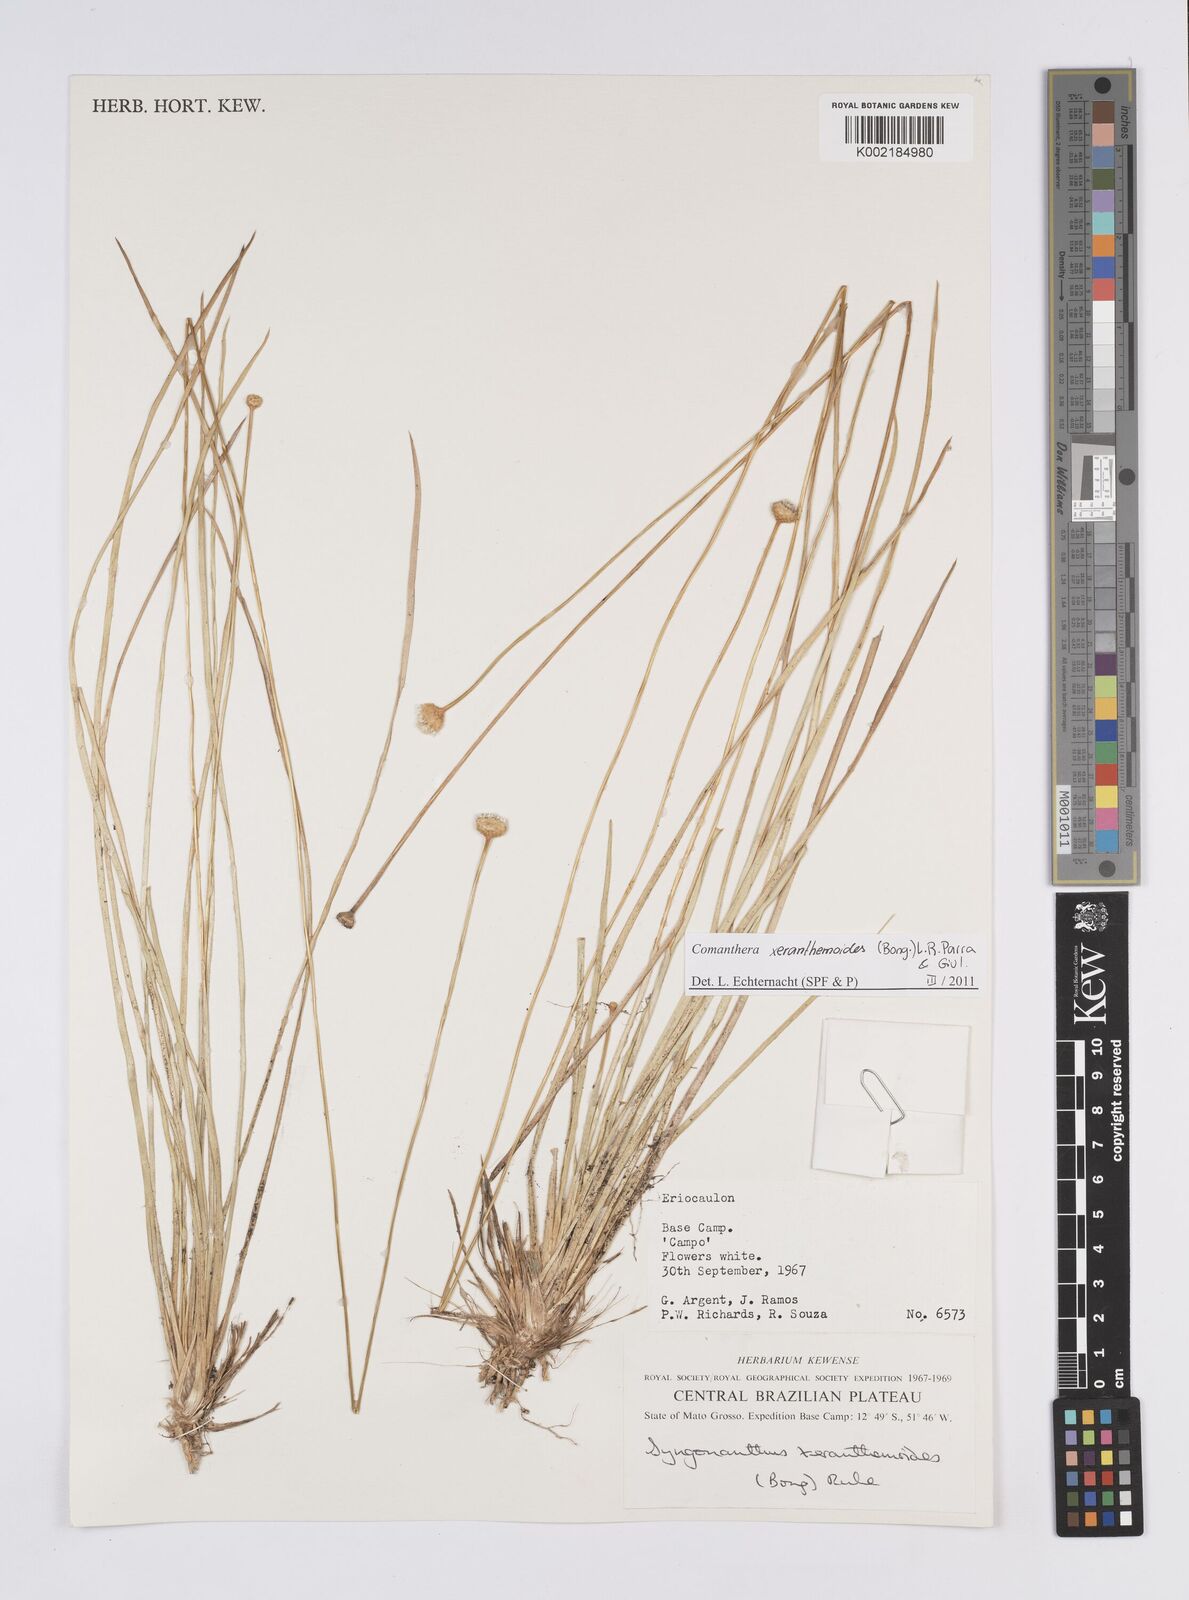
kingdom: Plantae
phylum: Tracheophyta
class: Liliopsida
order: Poales
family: Eriocaulaceae
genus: Comanthera
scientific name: Comanthera xeranthemoides
